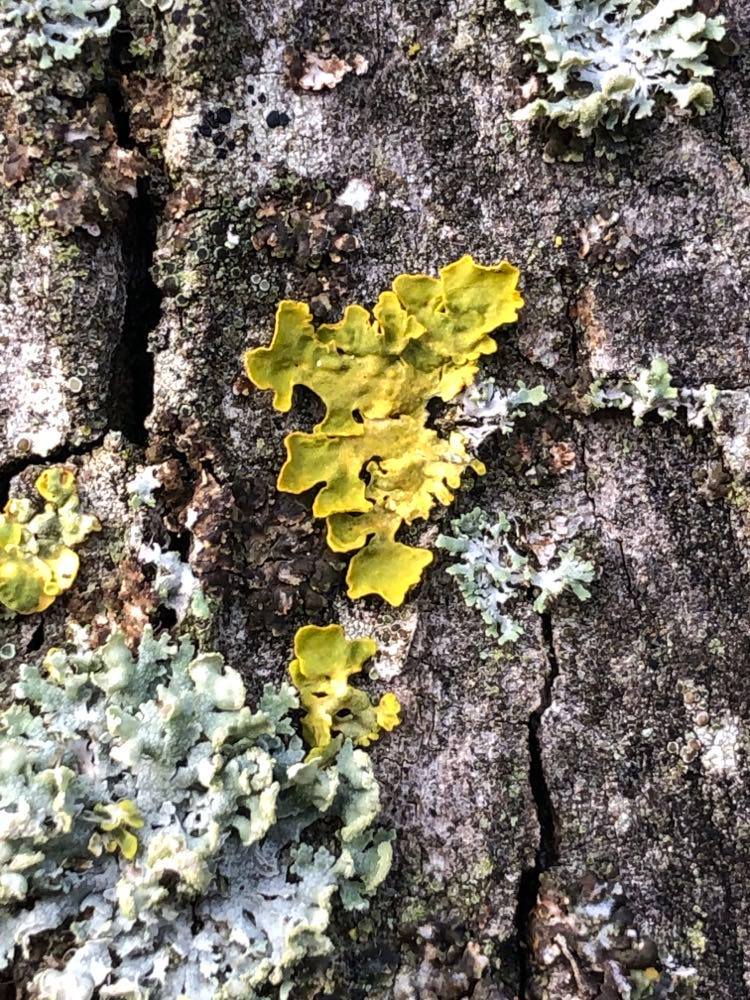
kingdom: Fungi
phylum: Ascomycota
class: Lecanoromycetes
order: Teloschistales
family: Teloschistaceae
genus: Xanthoria
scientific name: Xanthoria parietina
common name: almindelig væggelav
